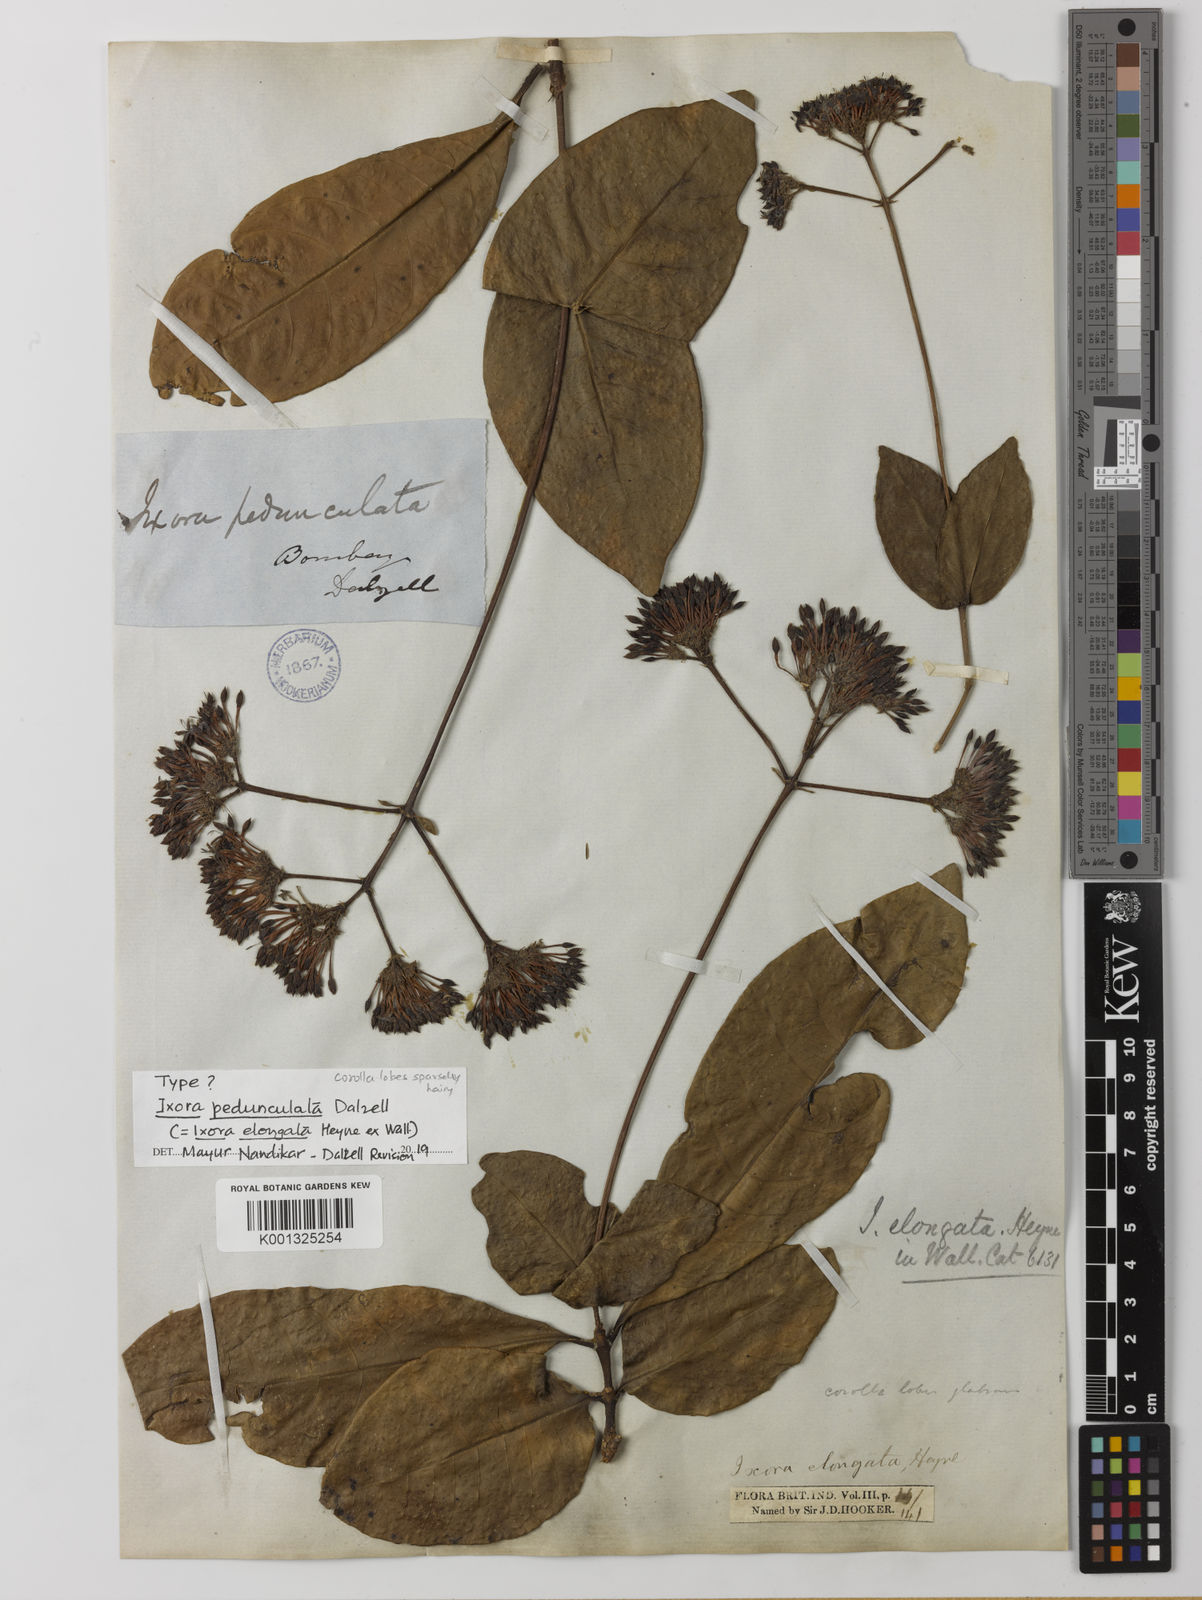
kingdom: Plantae
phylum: Tracheophyta
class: Magnoliopsida
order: Gentianales
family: Rubiaceae
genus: Ixora
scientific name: Ixora elongata
